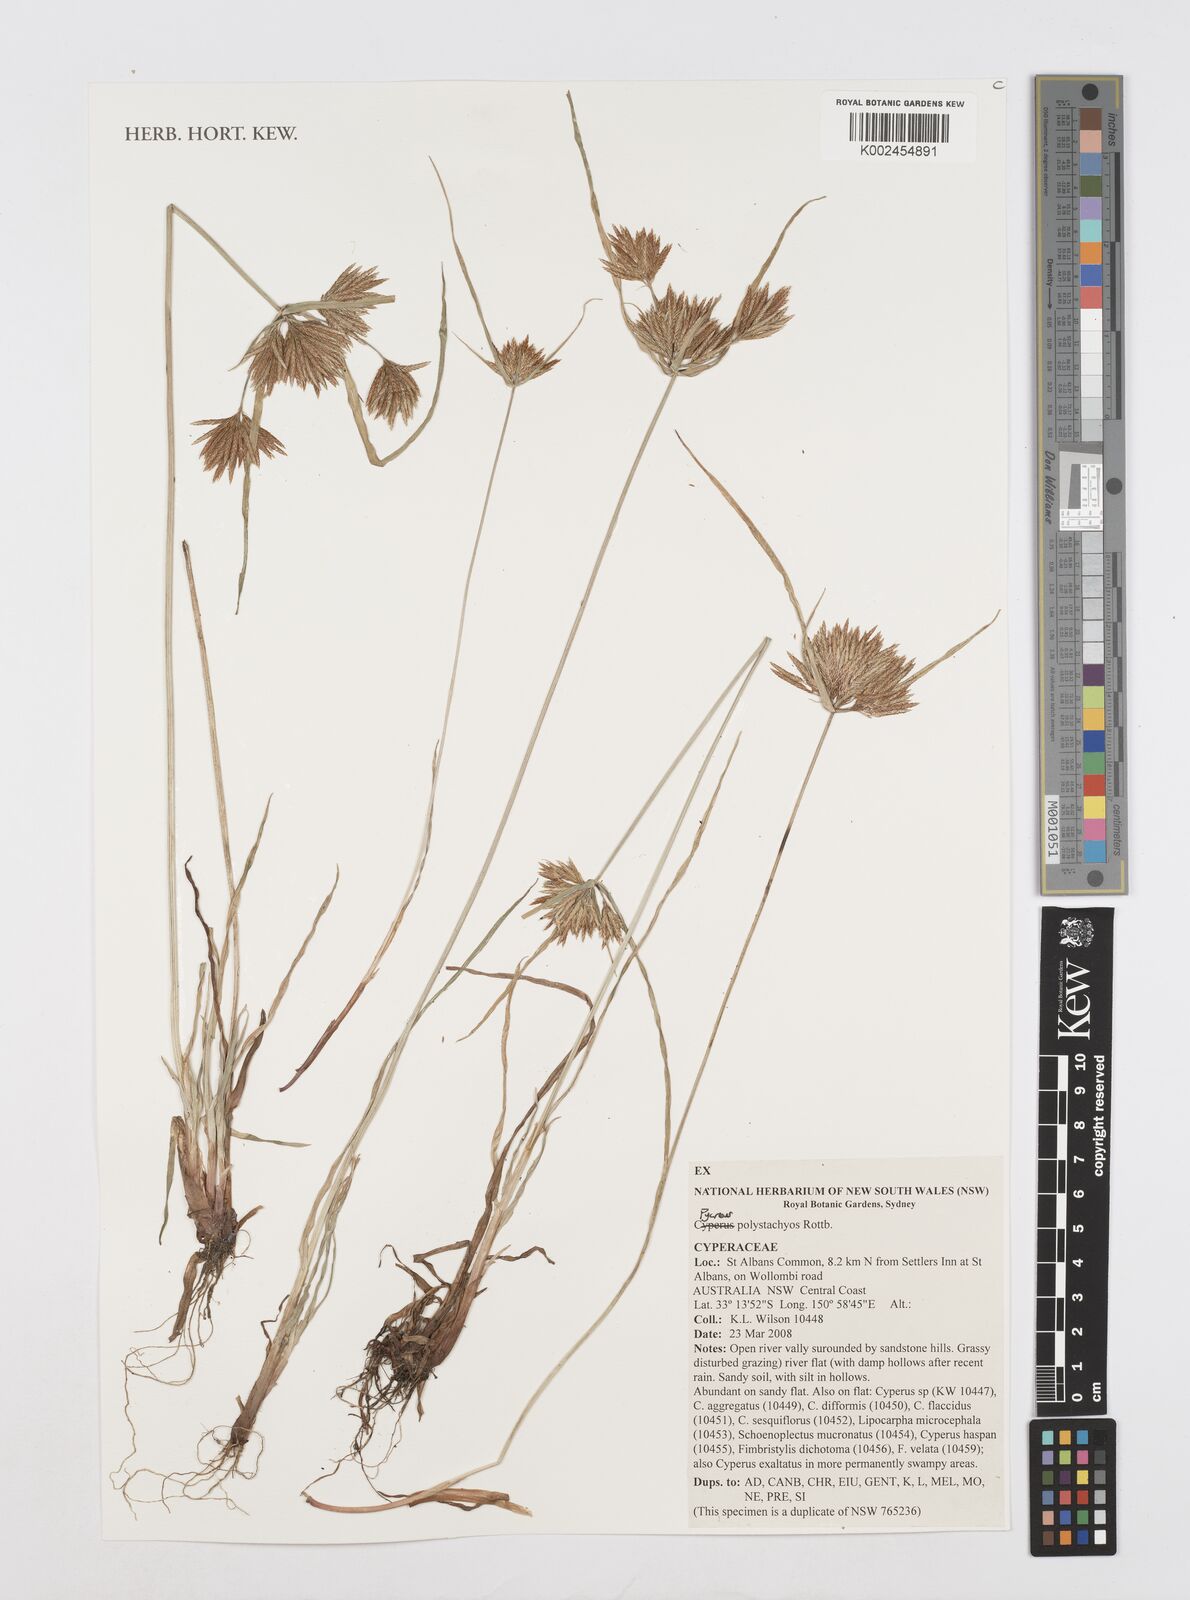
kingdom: Plantae
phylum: Tracheophyta
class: Liliopsida
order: Poales
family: Cyperaceae
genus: Cyperus
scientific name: Cyperus polystachyos
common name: Bunchy flat sedge
